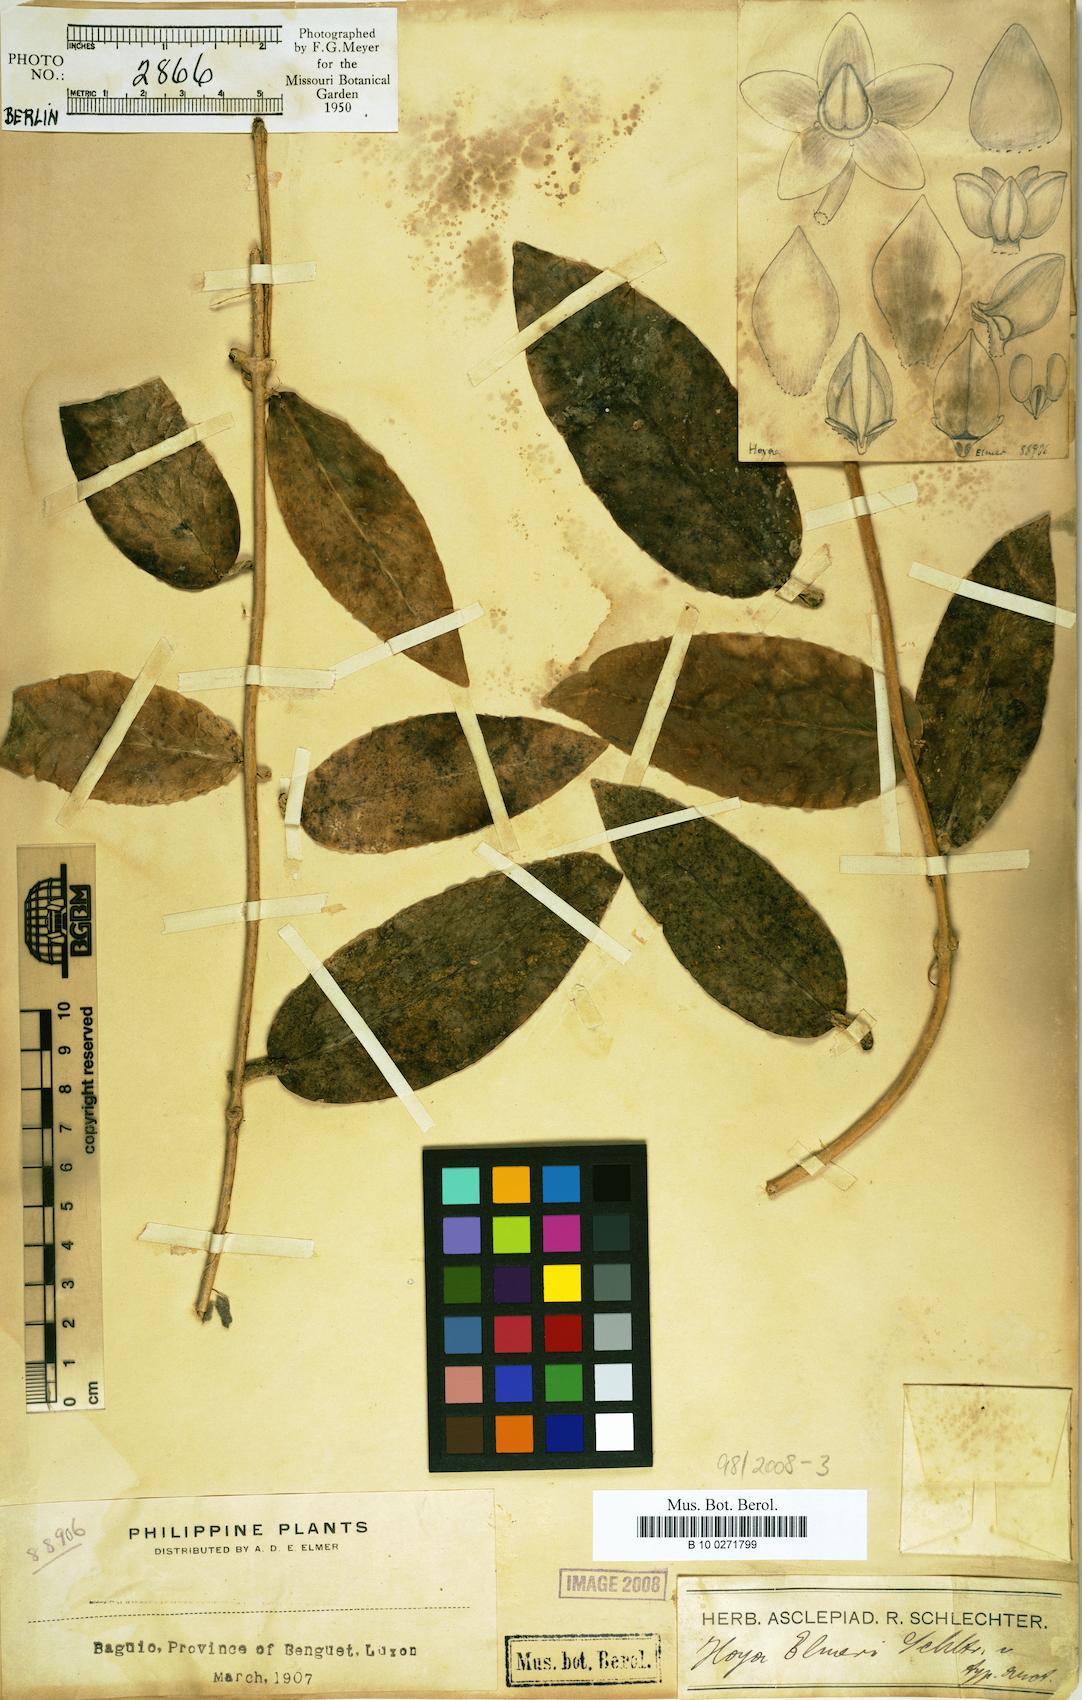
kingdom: Plantae
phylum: Tracheophyta
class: Magnoliopsida
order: Gentianales
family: Apocynaceae
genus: Hoya
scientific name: Hoya elmeri
